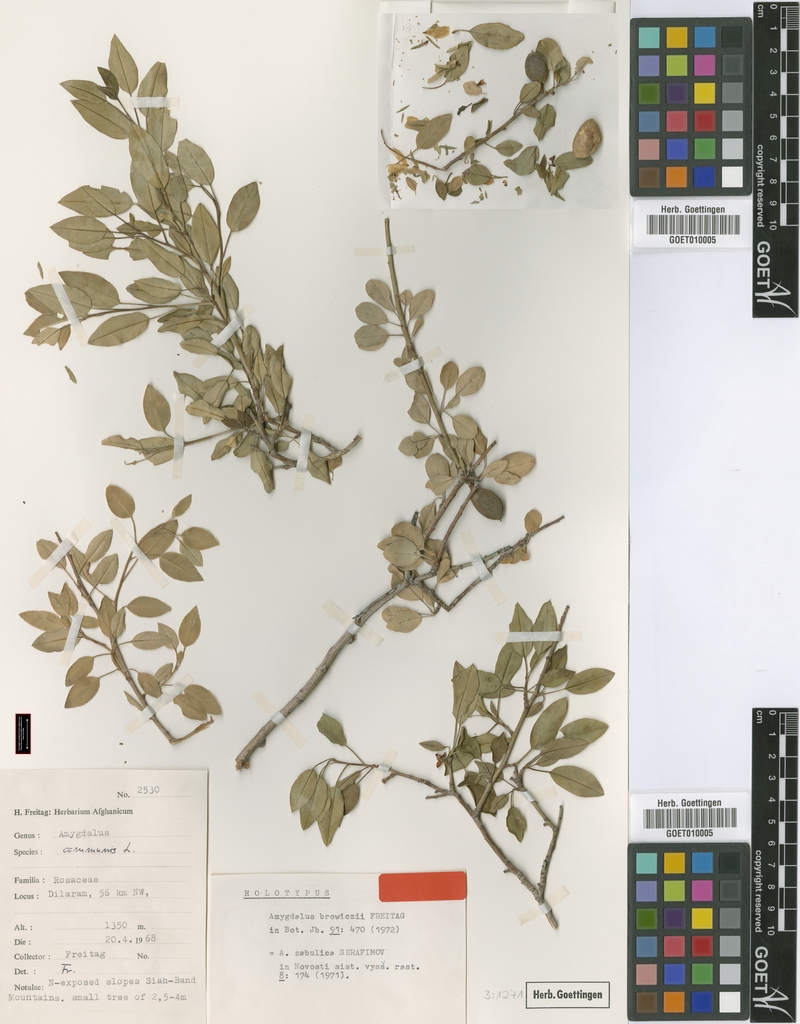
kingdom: Plantae
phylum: Tracheophyta
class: Magnoliopsida
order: Rosales
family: Rosaceae
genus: Prunus
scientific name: Prunus zabulica
